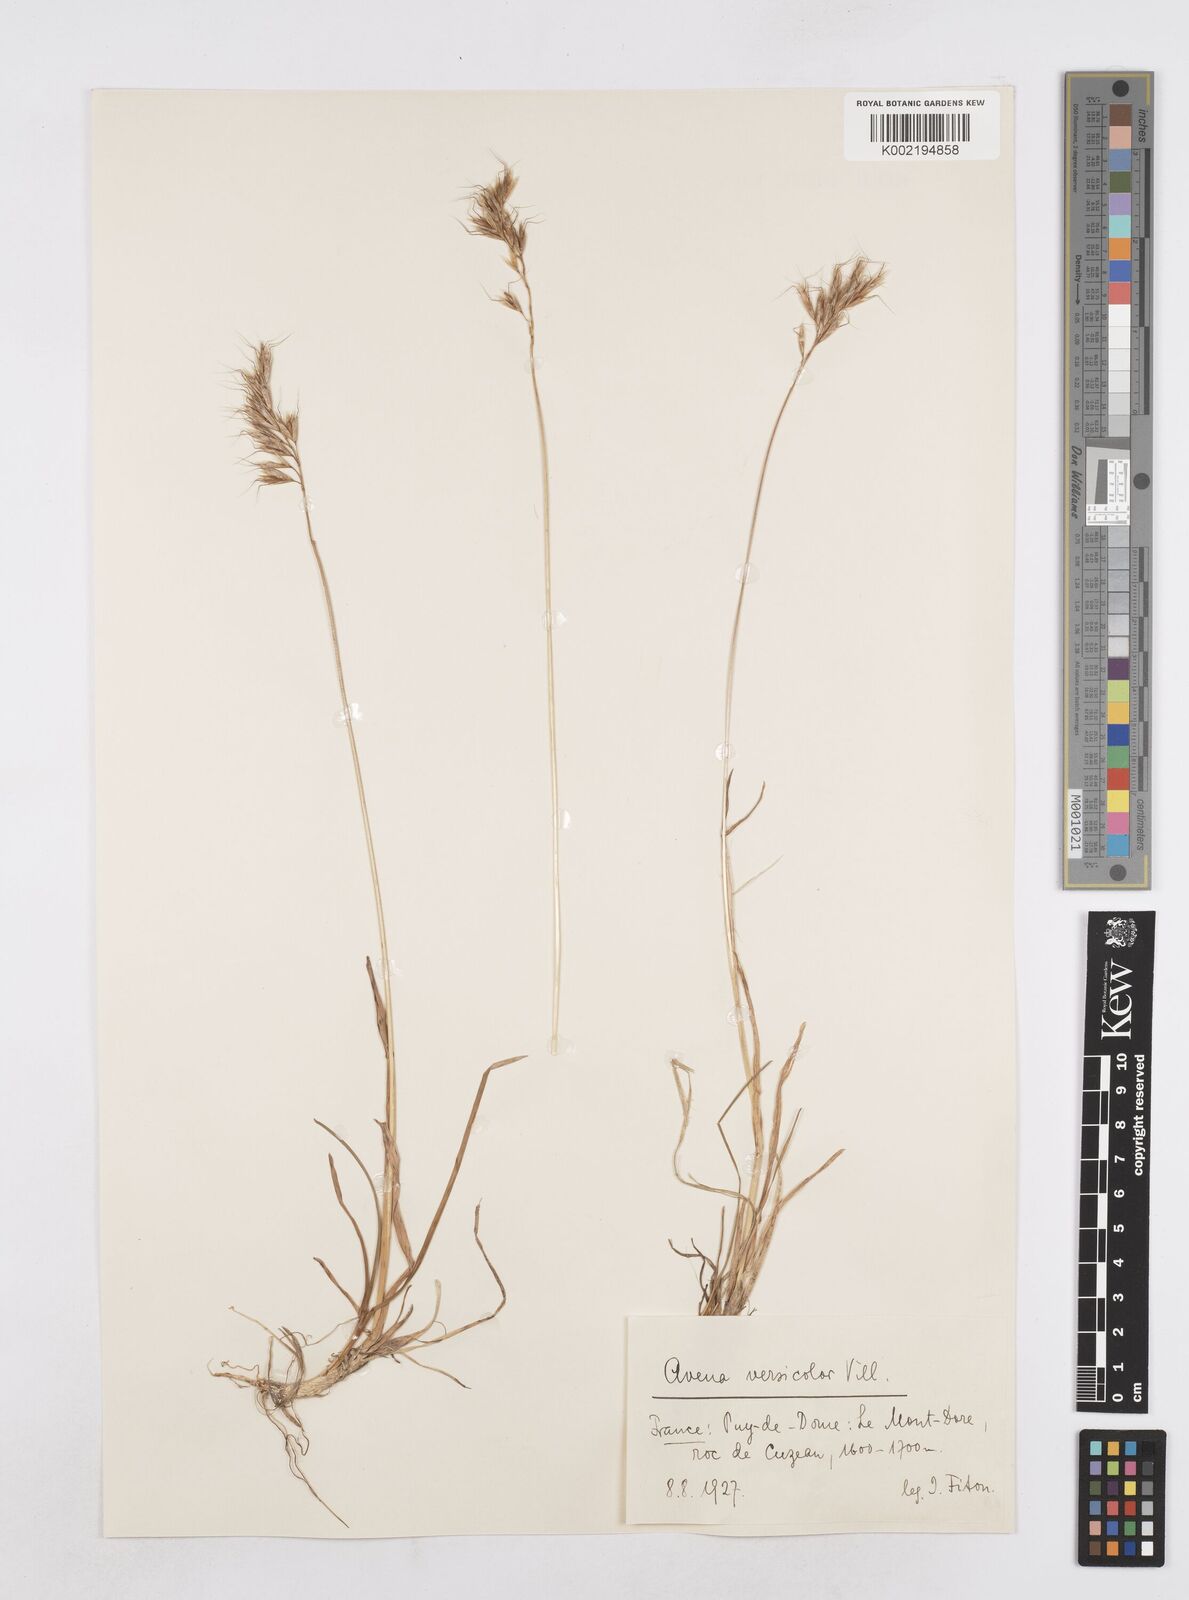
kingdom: Plantae
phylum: Tracheophyta
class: Liliopsida
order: Poales
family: Poaceae
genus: Helictochloa
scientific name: Helictochloa versicolor
